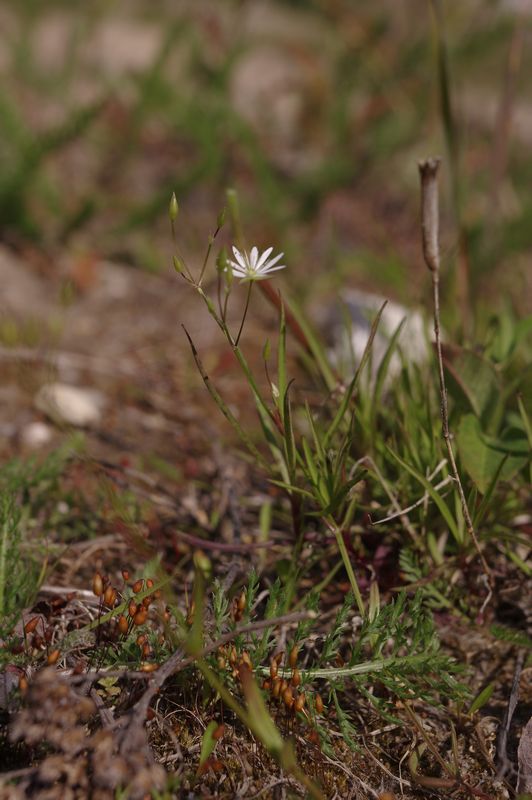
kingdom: Plantae
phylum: Tracheophyta
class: Magnoliopsida
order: Caryophyllales
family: Caryophyllaceae
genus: Stellaria
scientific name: Stellaria graminea
